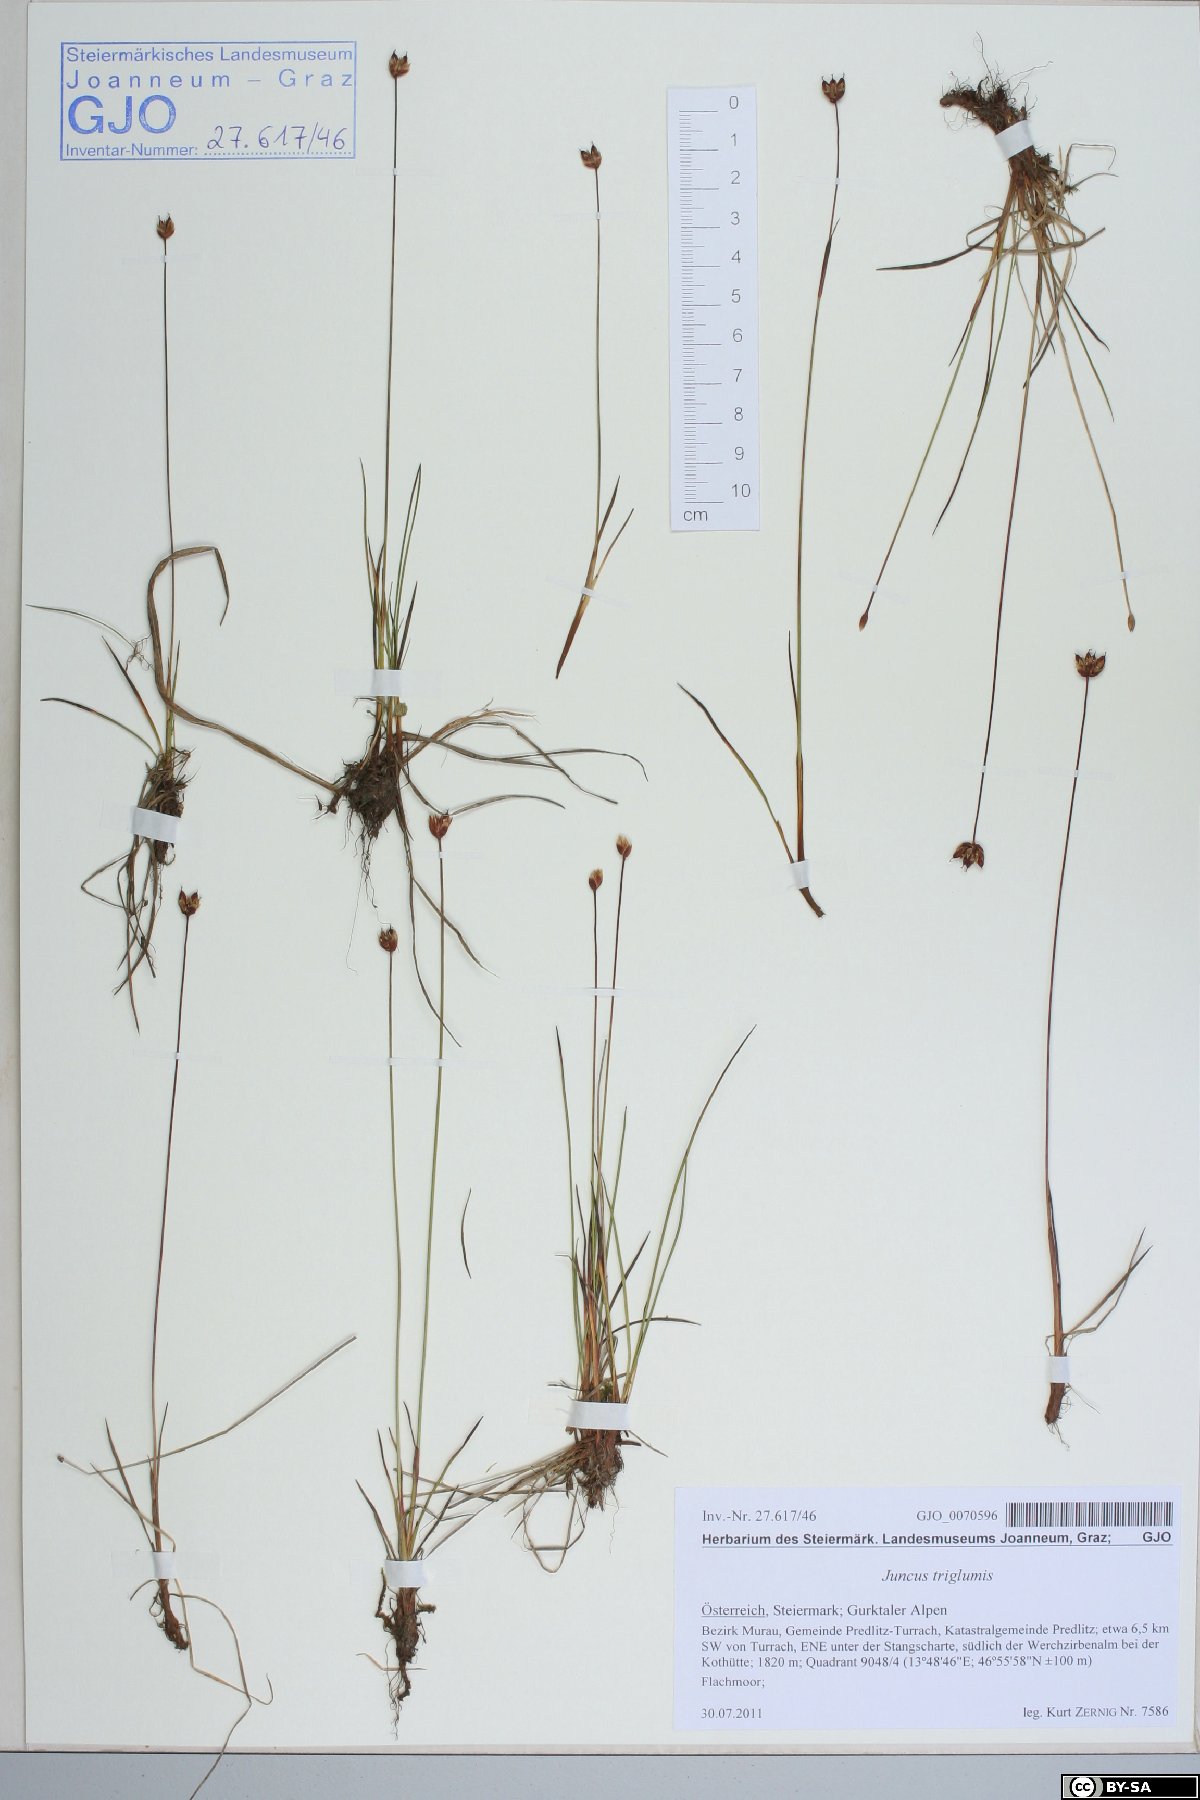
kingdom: Plantae
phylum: Tracheophyta
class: Liliopsida
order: Poales
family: Juncaceae
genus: Juncus
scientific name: Juncus triglumis
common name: Three-flowered rush
